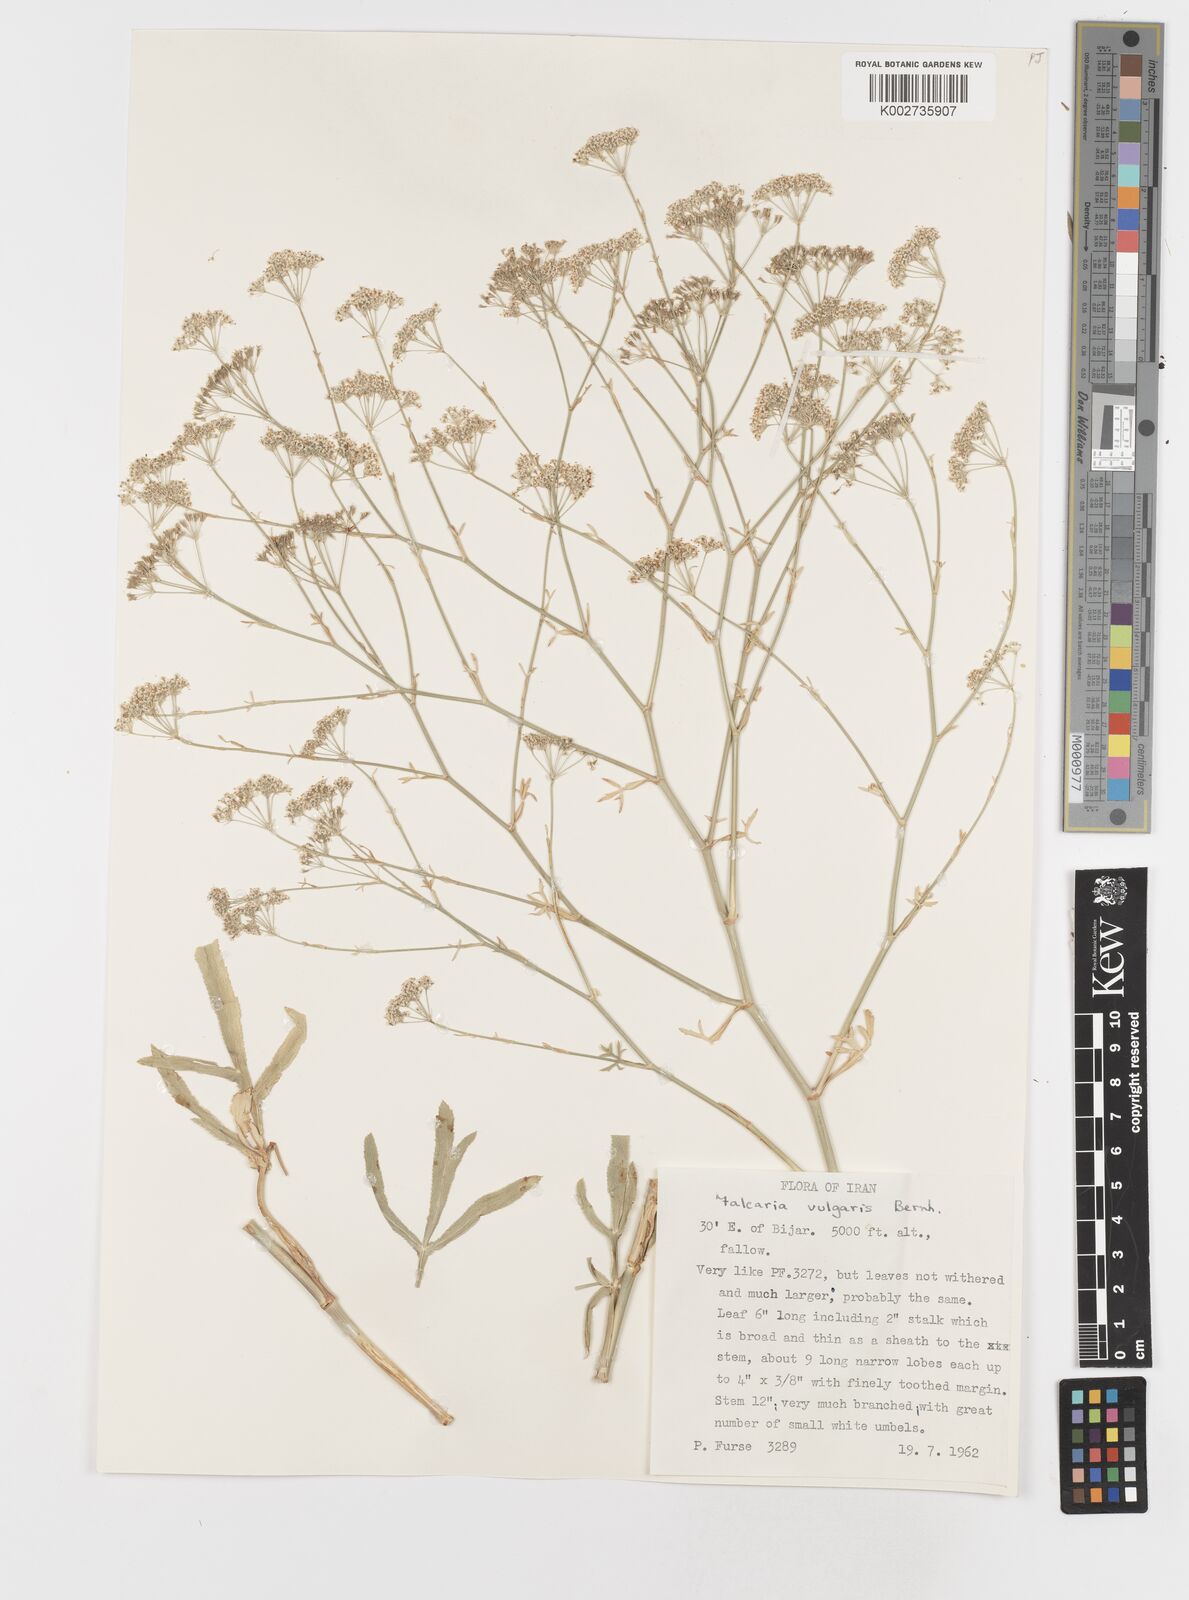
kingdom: Plantae
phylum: Tracheophyta
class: Magnoliopsida
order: Apiales
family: Apiaceae
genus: Falcaria
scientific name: Falcaria vulgaris
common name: Longleaf
